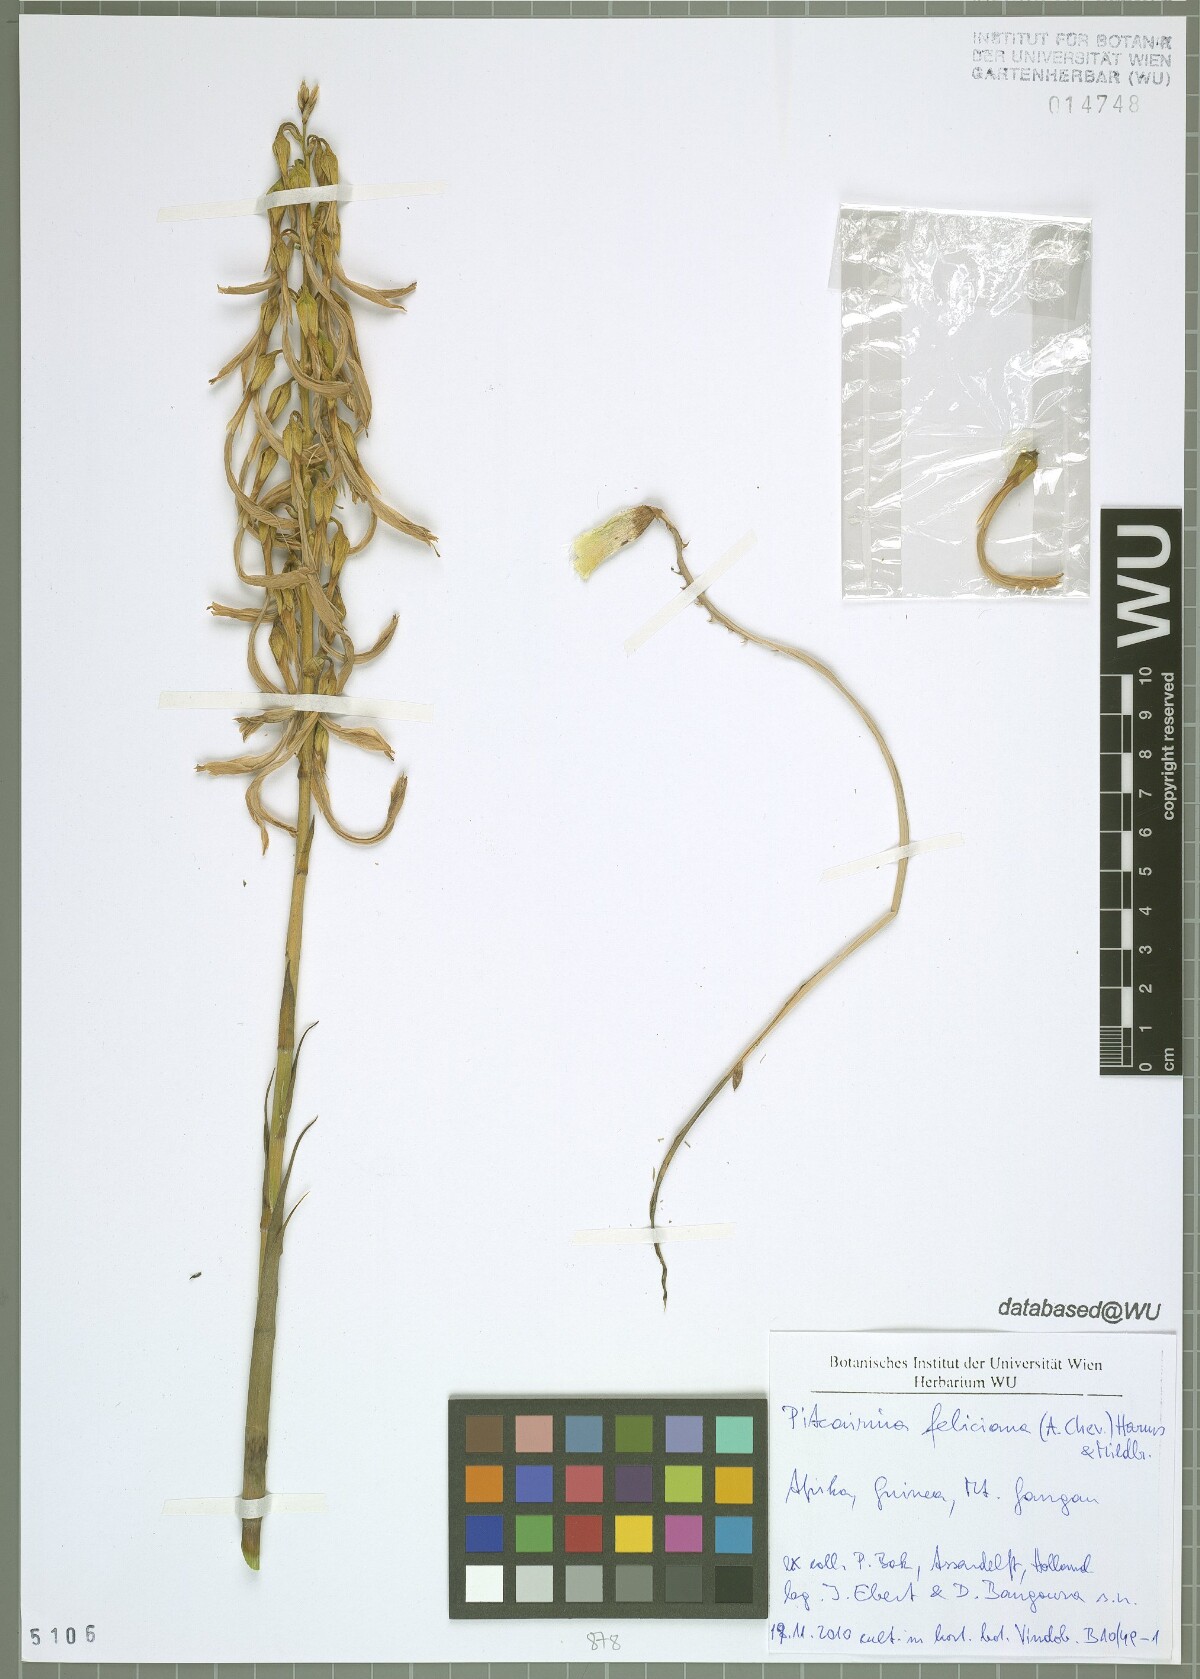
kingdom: Plantae
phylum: Tracheophyta
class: Liliopsida
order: Poales
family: Bromeliaceae
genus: Pitcairnia
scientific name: Pitcairnia feliciana
